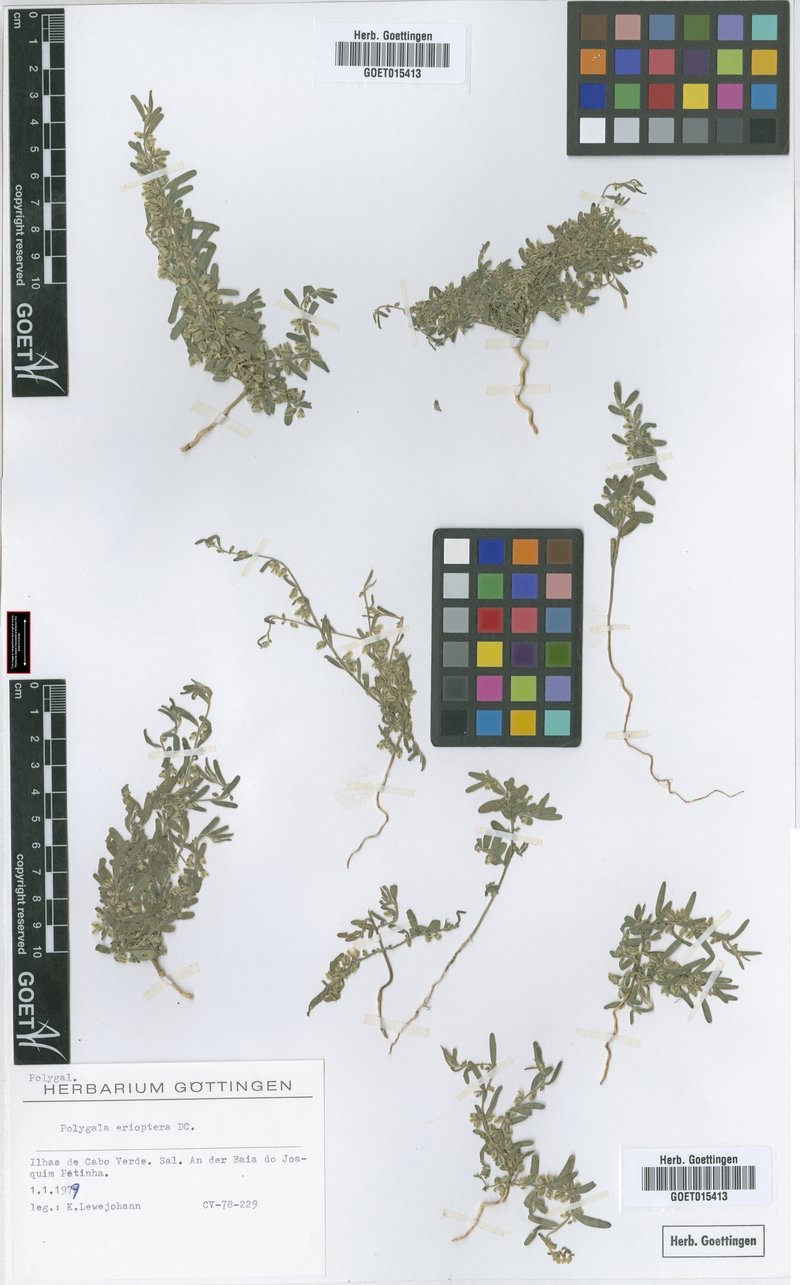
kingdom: Plantae
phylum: Tracheophyta
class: Magnoliopsida
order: Fabales
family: Polygalaceae
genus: Polygala
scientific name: Polygala erioptera
